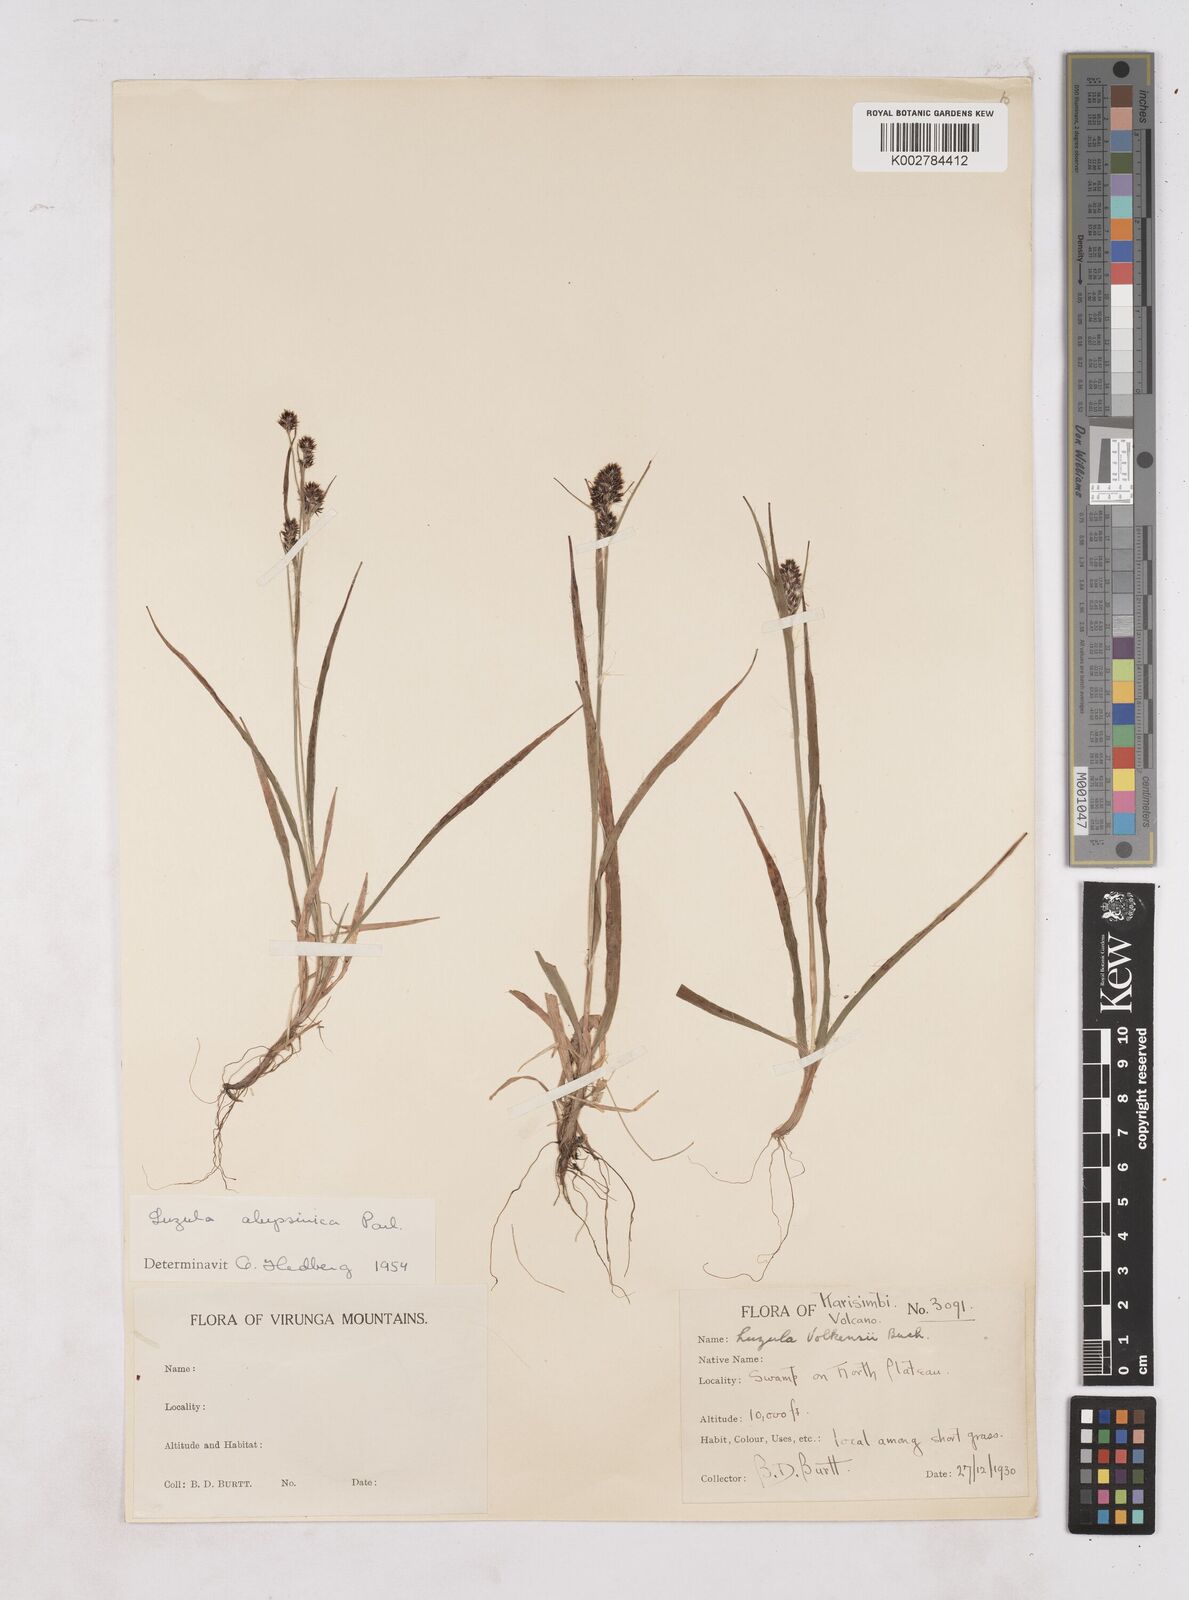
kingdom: Plantae
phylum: Tracheophyta
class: Liliopsida
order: Poales
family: Juncaceae
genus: Luzula
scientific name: Luzula abyssinica
